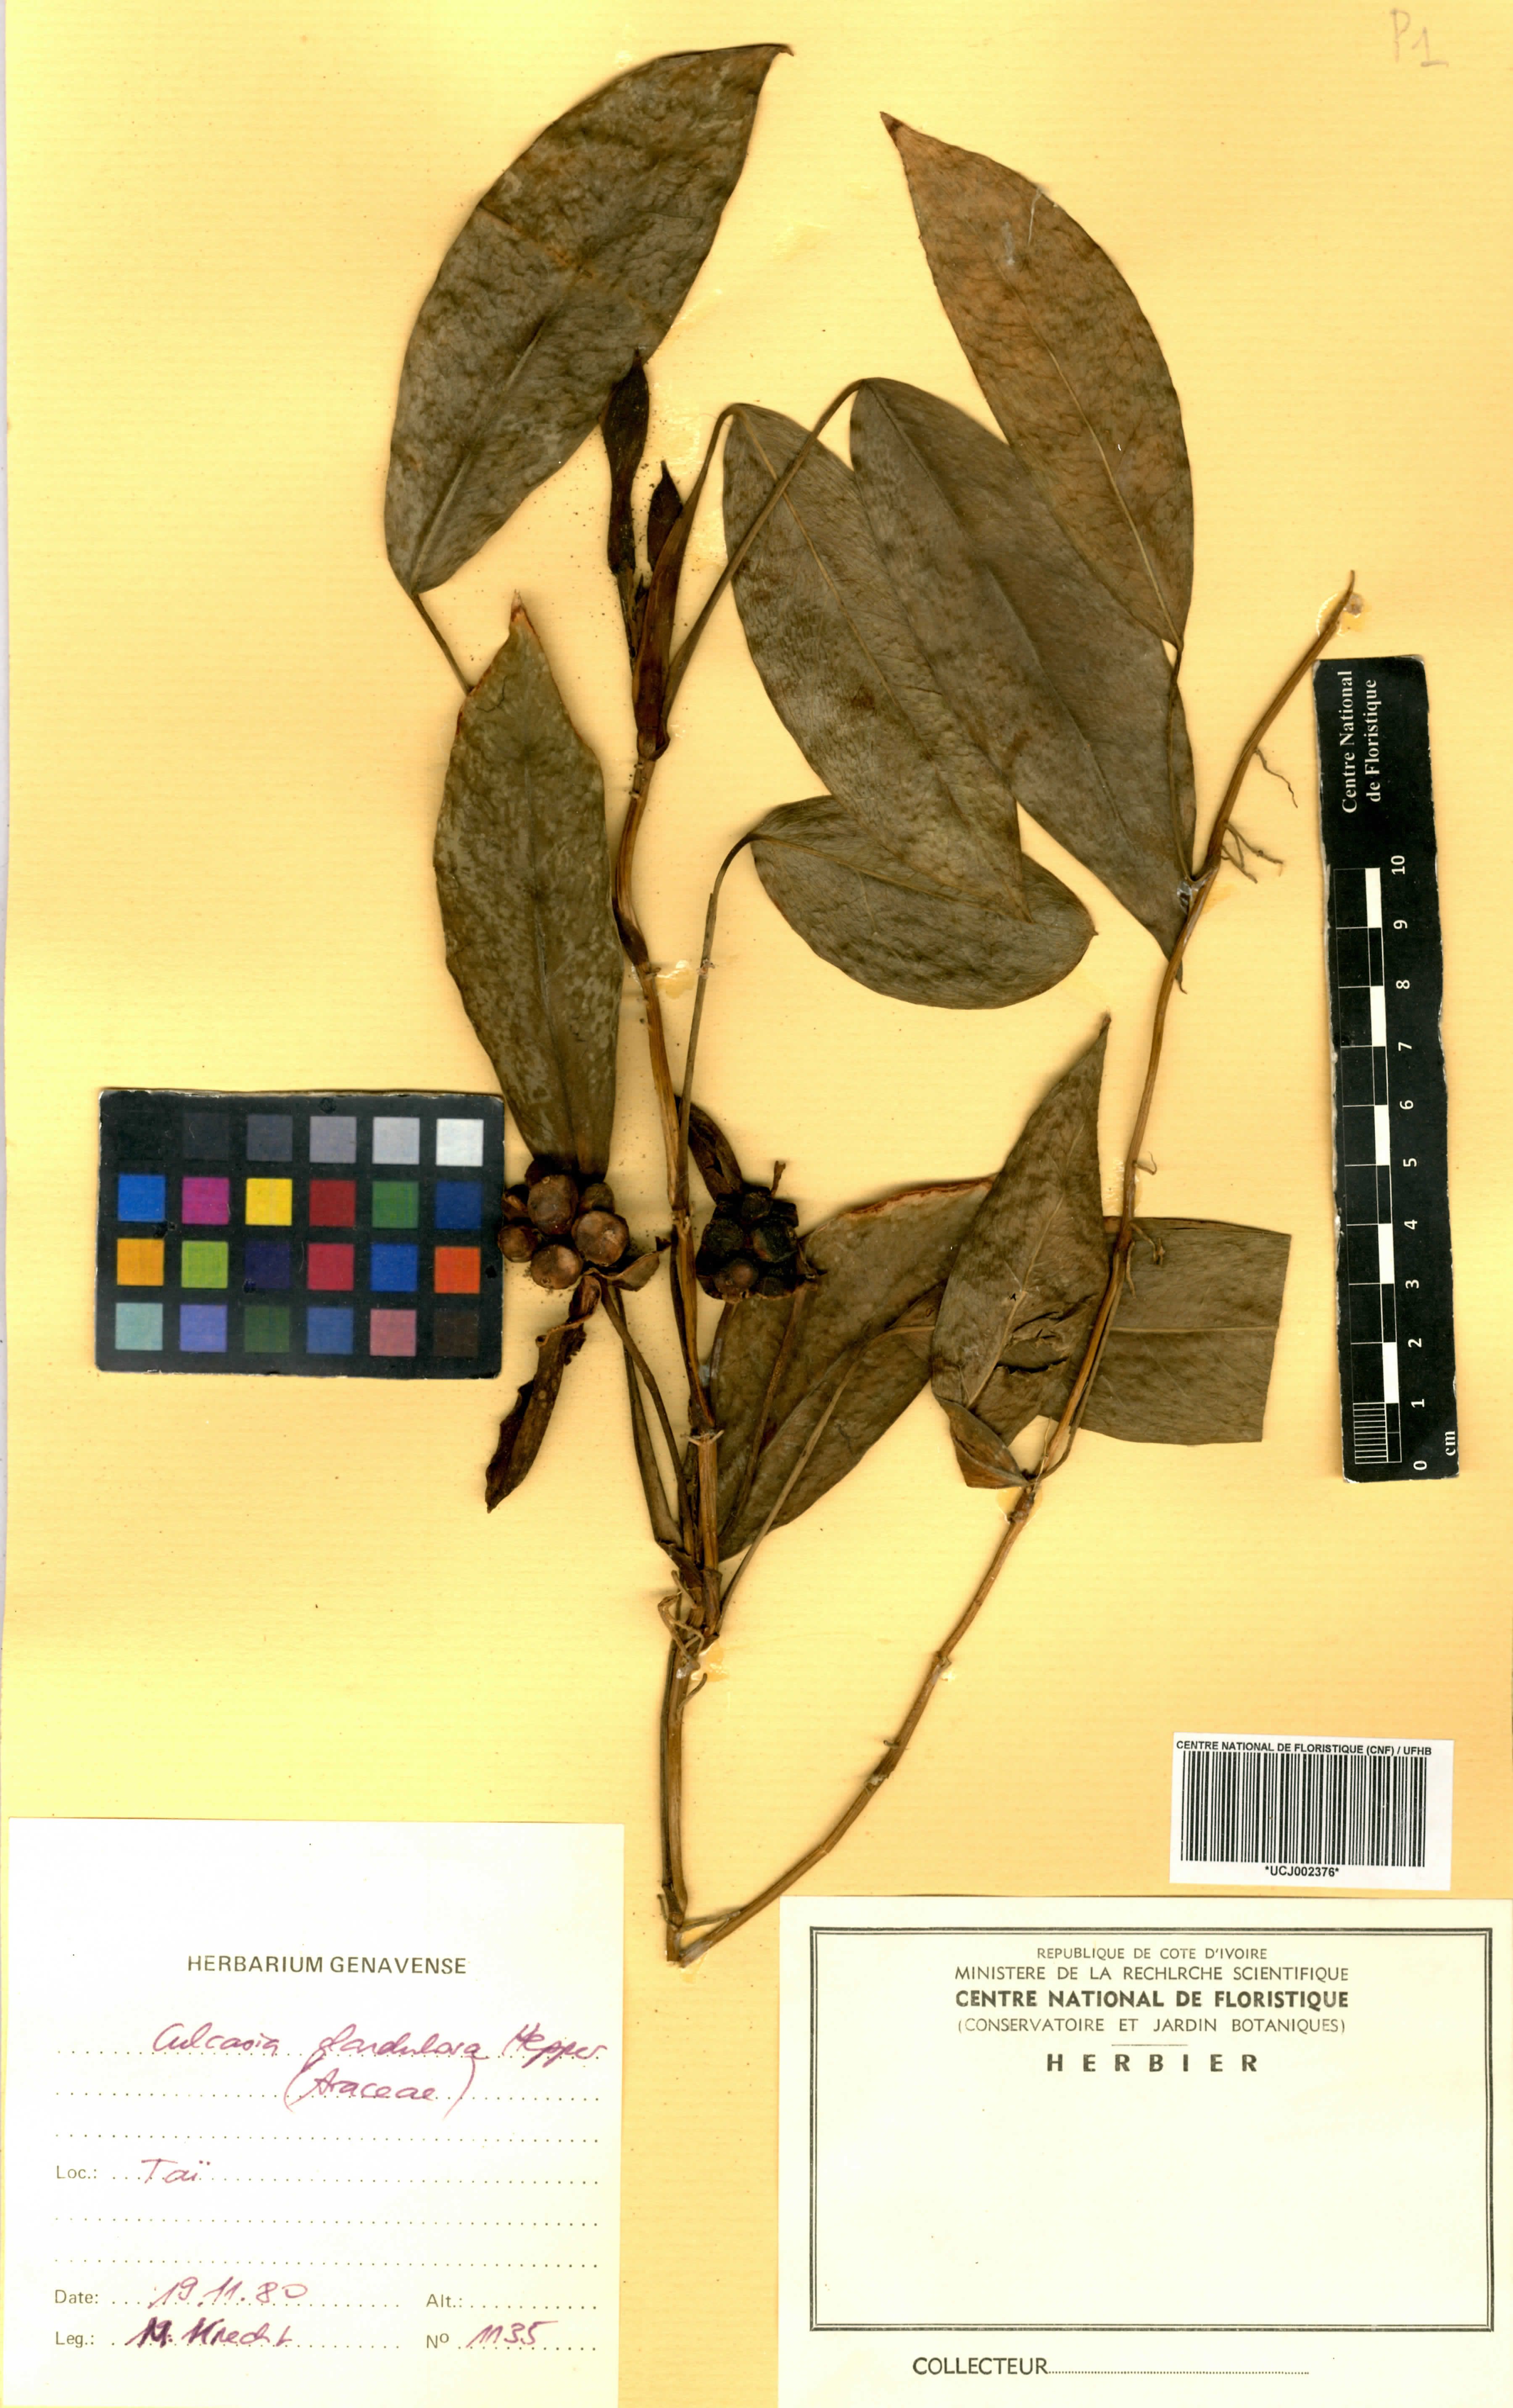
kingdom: Plantae
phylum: Tracheophyta
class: Liliopsida
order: Alismatales
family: Araceae
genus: Culcasia
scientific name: Culcasia glandulosa
